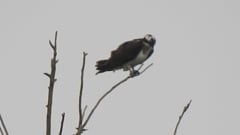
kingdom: Animalia
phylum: Chordata
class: Aves
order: Accipitriformes
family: Pandionidae
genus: Pandion
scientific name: Pandion haliaetus
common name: Osprey
